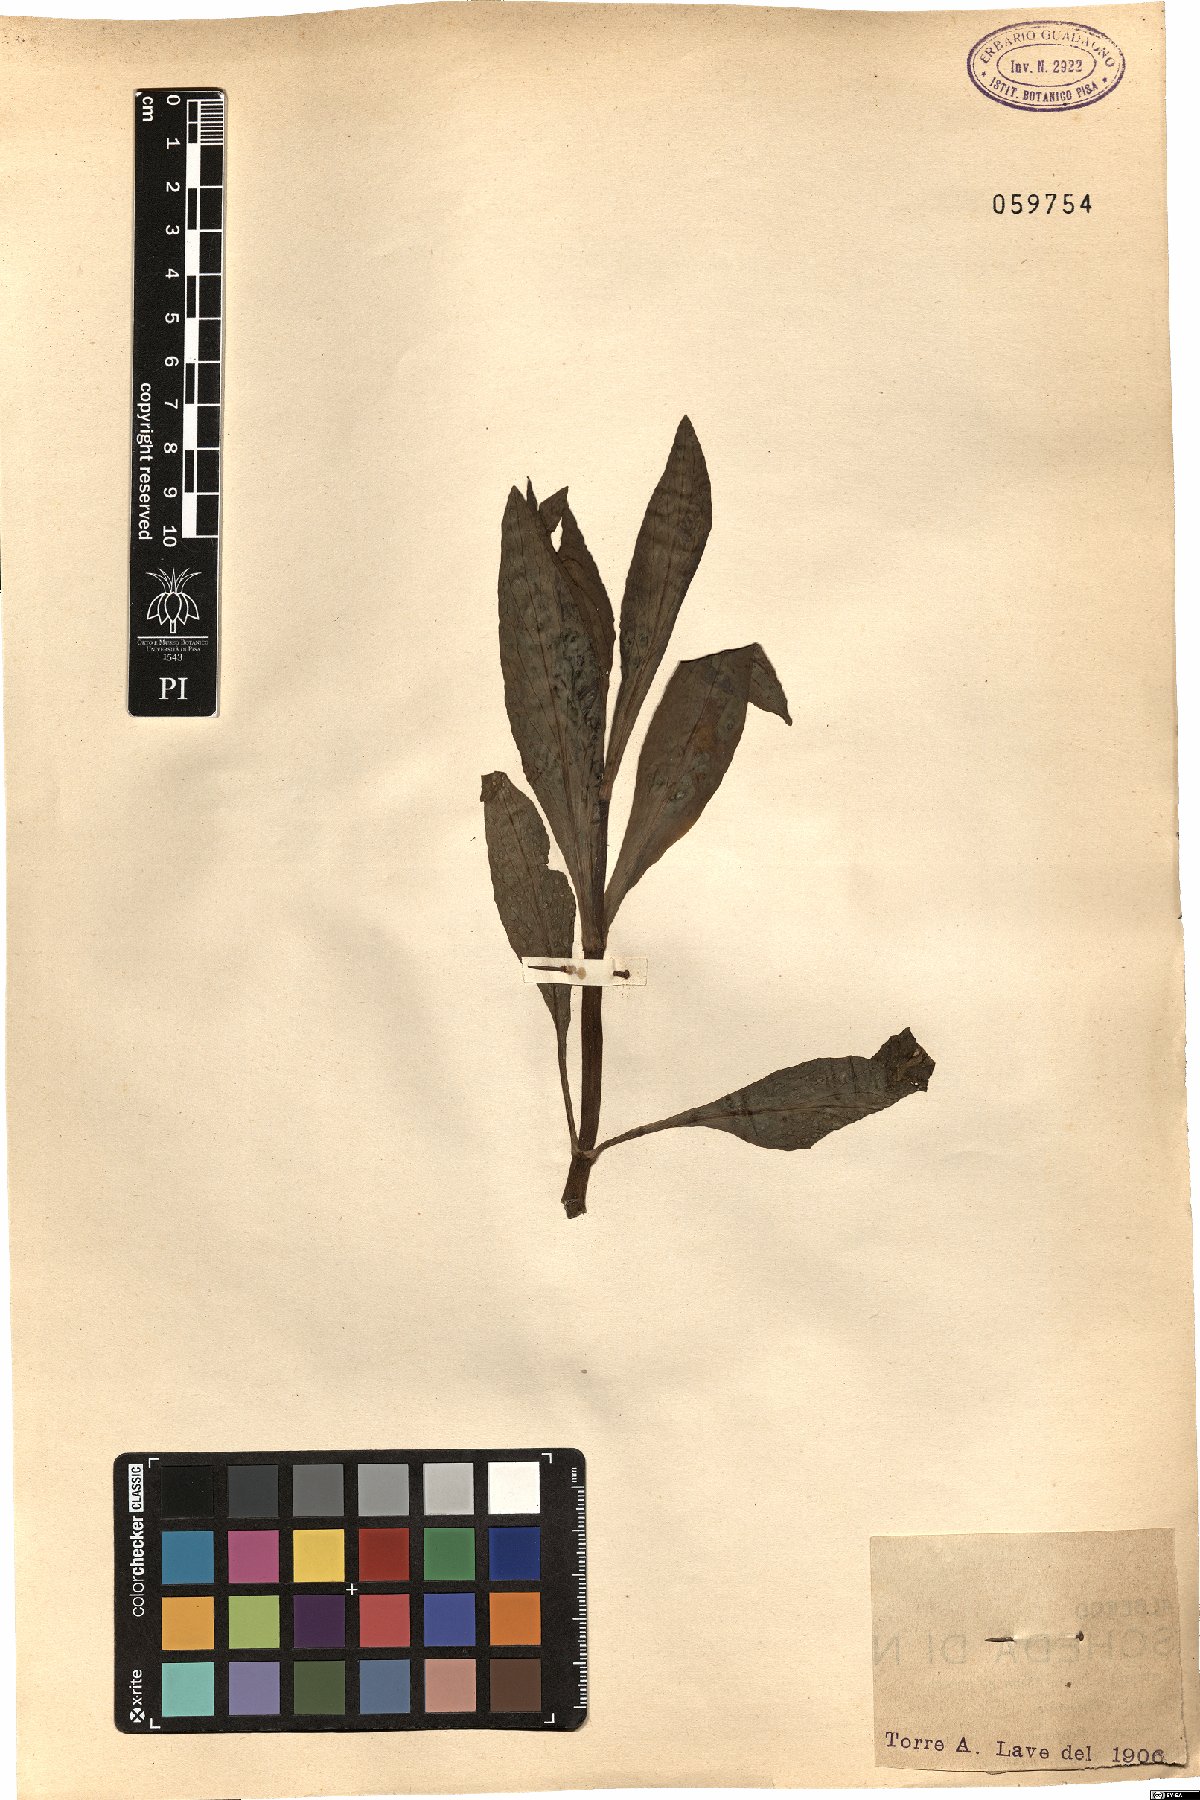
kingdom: Plantae
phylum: Tracheophyta
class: Magnoliopsida
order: Dipsacales
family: Caprifoliaceae
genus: Centranthus
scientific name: Centranthus ruber
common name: Red valerian
